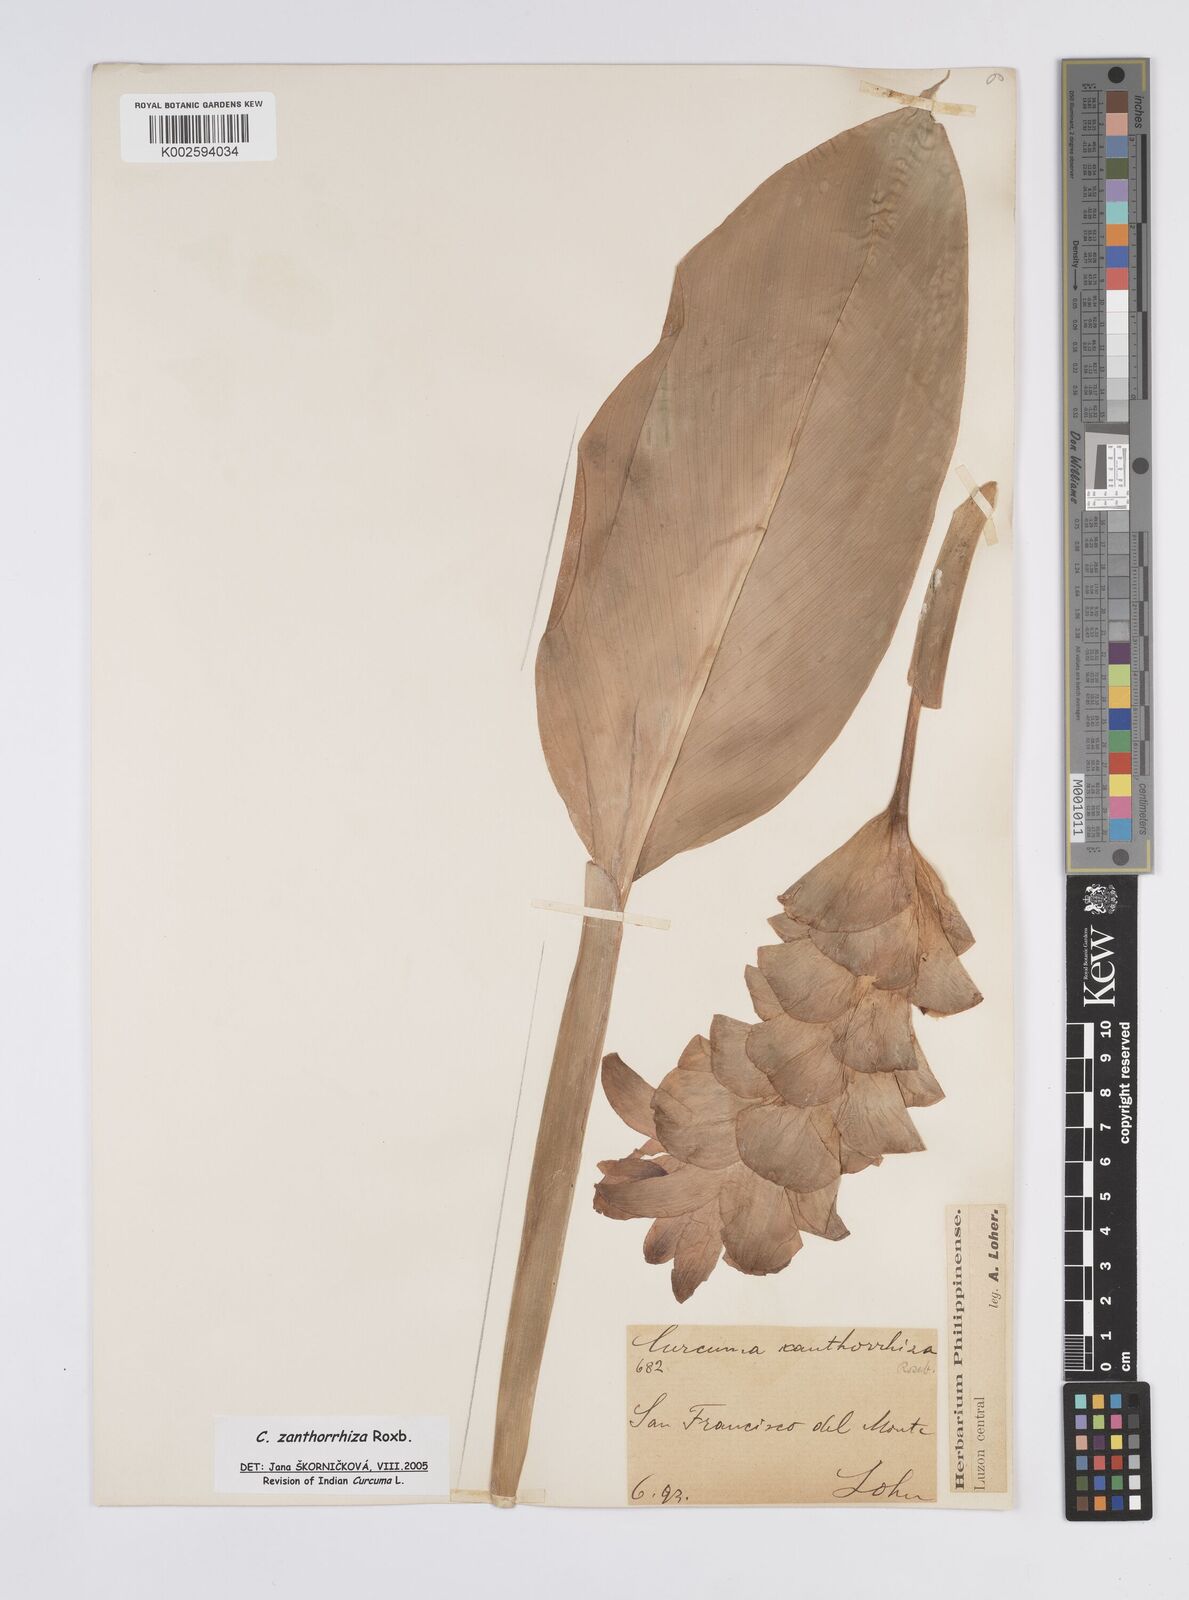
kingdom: Plantae
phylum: Tracheophyta
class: Liliopsida
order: Zingiberales
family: Zingiberaceae
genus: Curcuma
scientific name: Curcuma zanthorrhiza
